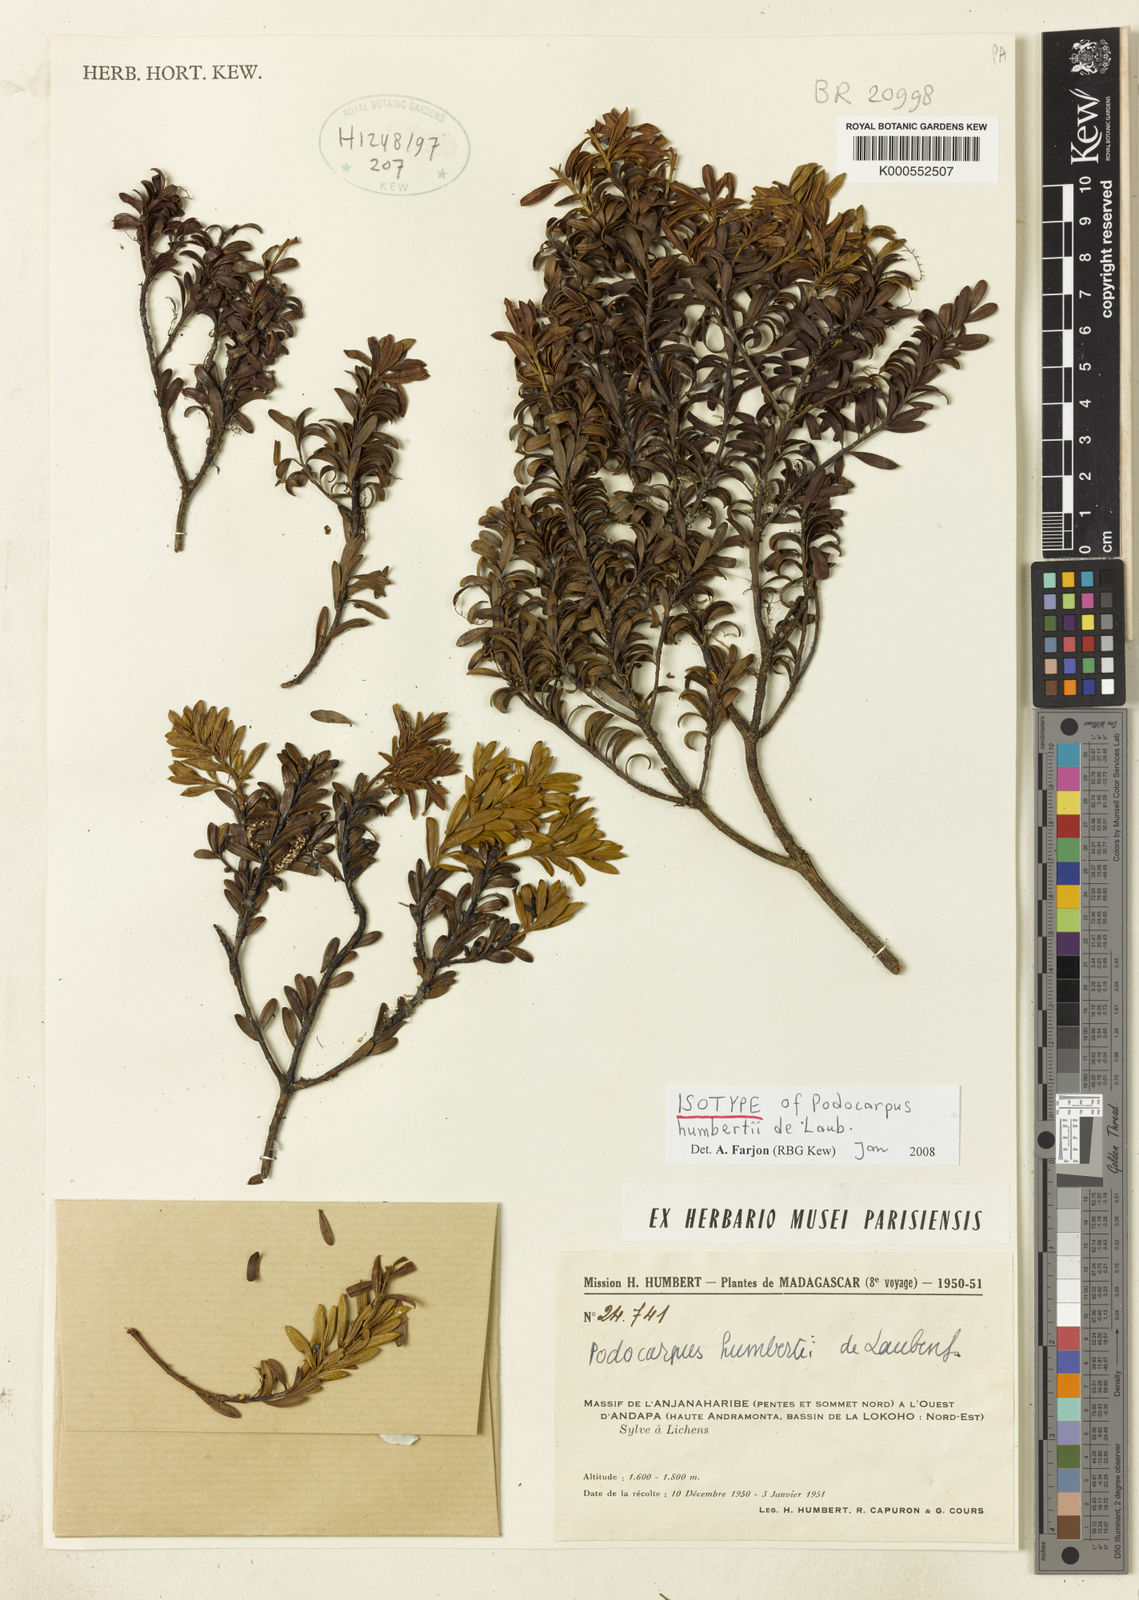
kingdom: Plantae
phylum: Tracheophyta
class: Pinopsida
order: Pinales
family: Podocarpaceae
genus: Podocarpus
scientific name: Podocarpus humbertii
